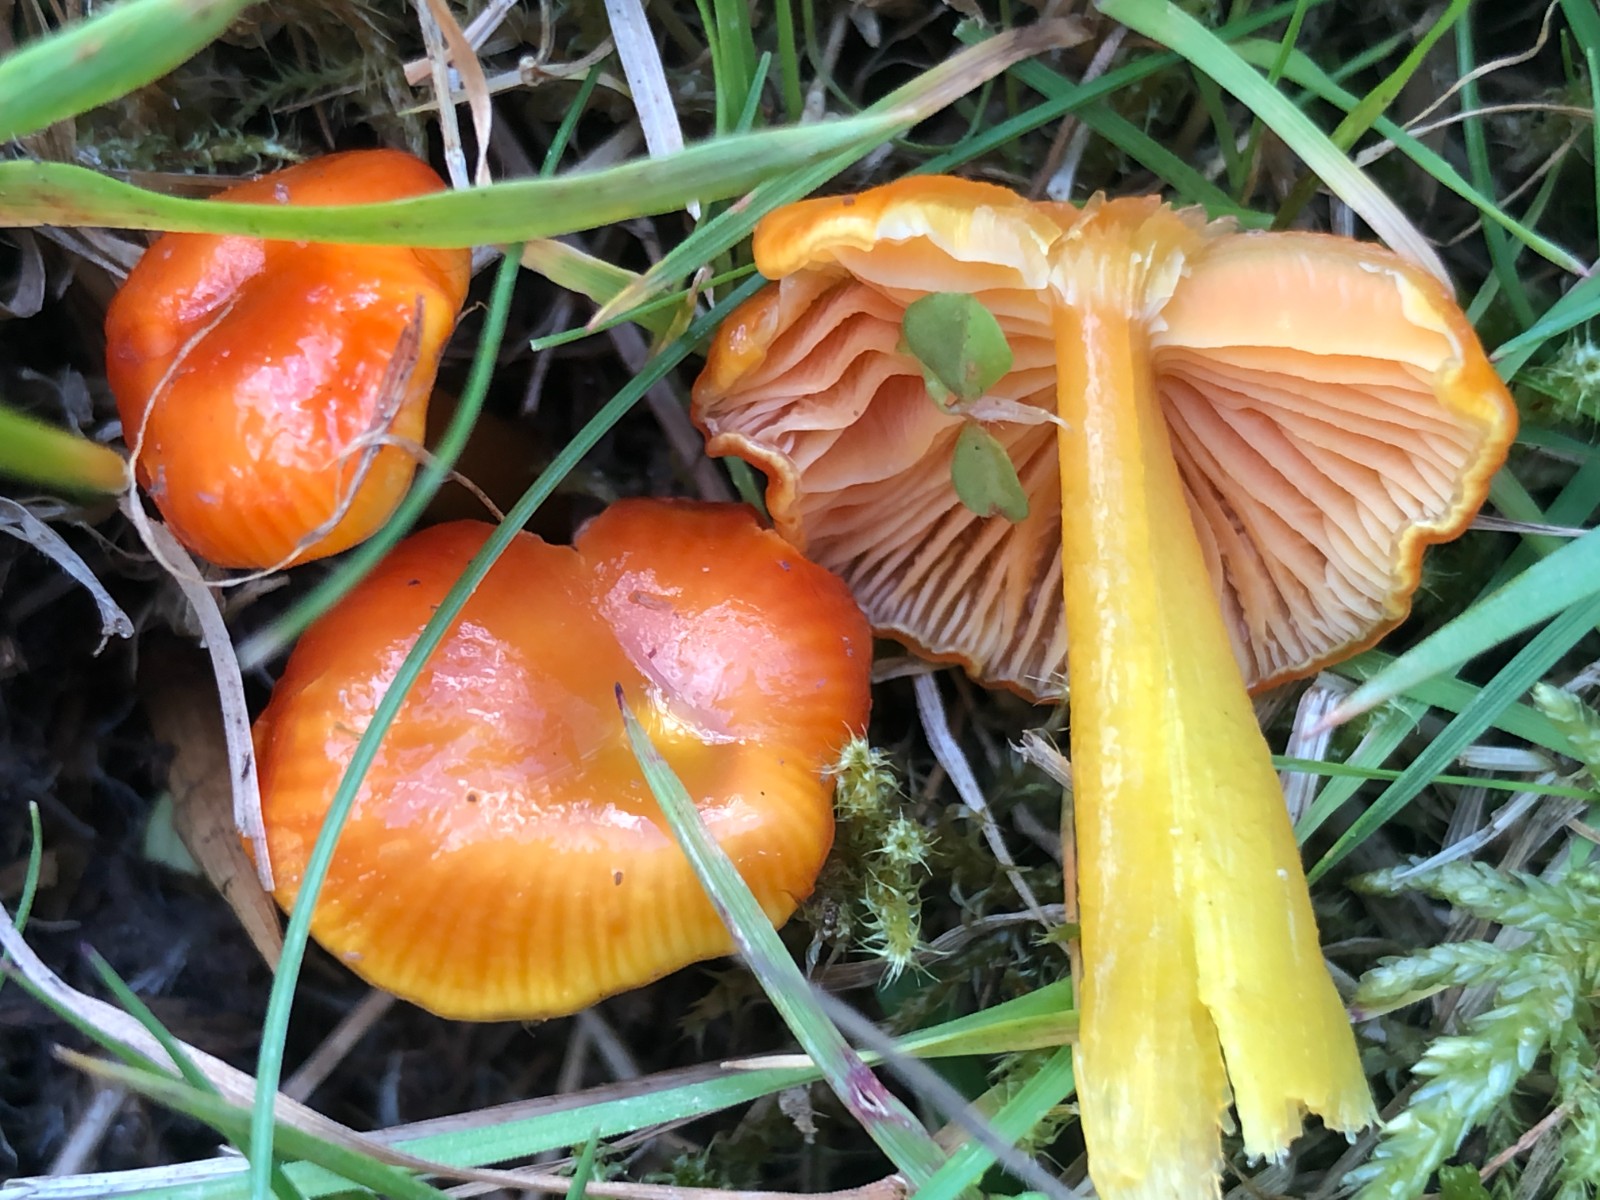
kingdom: Fungi
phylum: Basidiomycota
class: Agaricomycetes
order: Agaricales
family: Hygrophoraceae
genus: Gliophorus
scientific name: Gliophorus laetus
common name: brusk-vokshat
